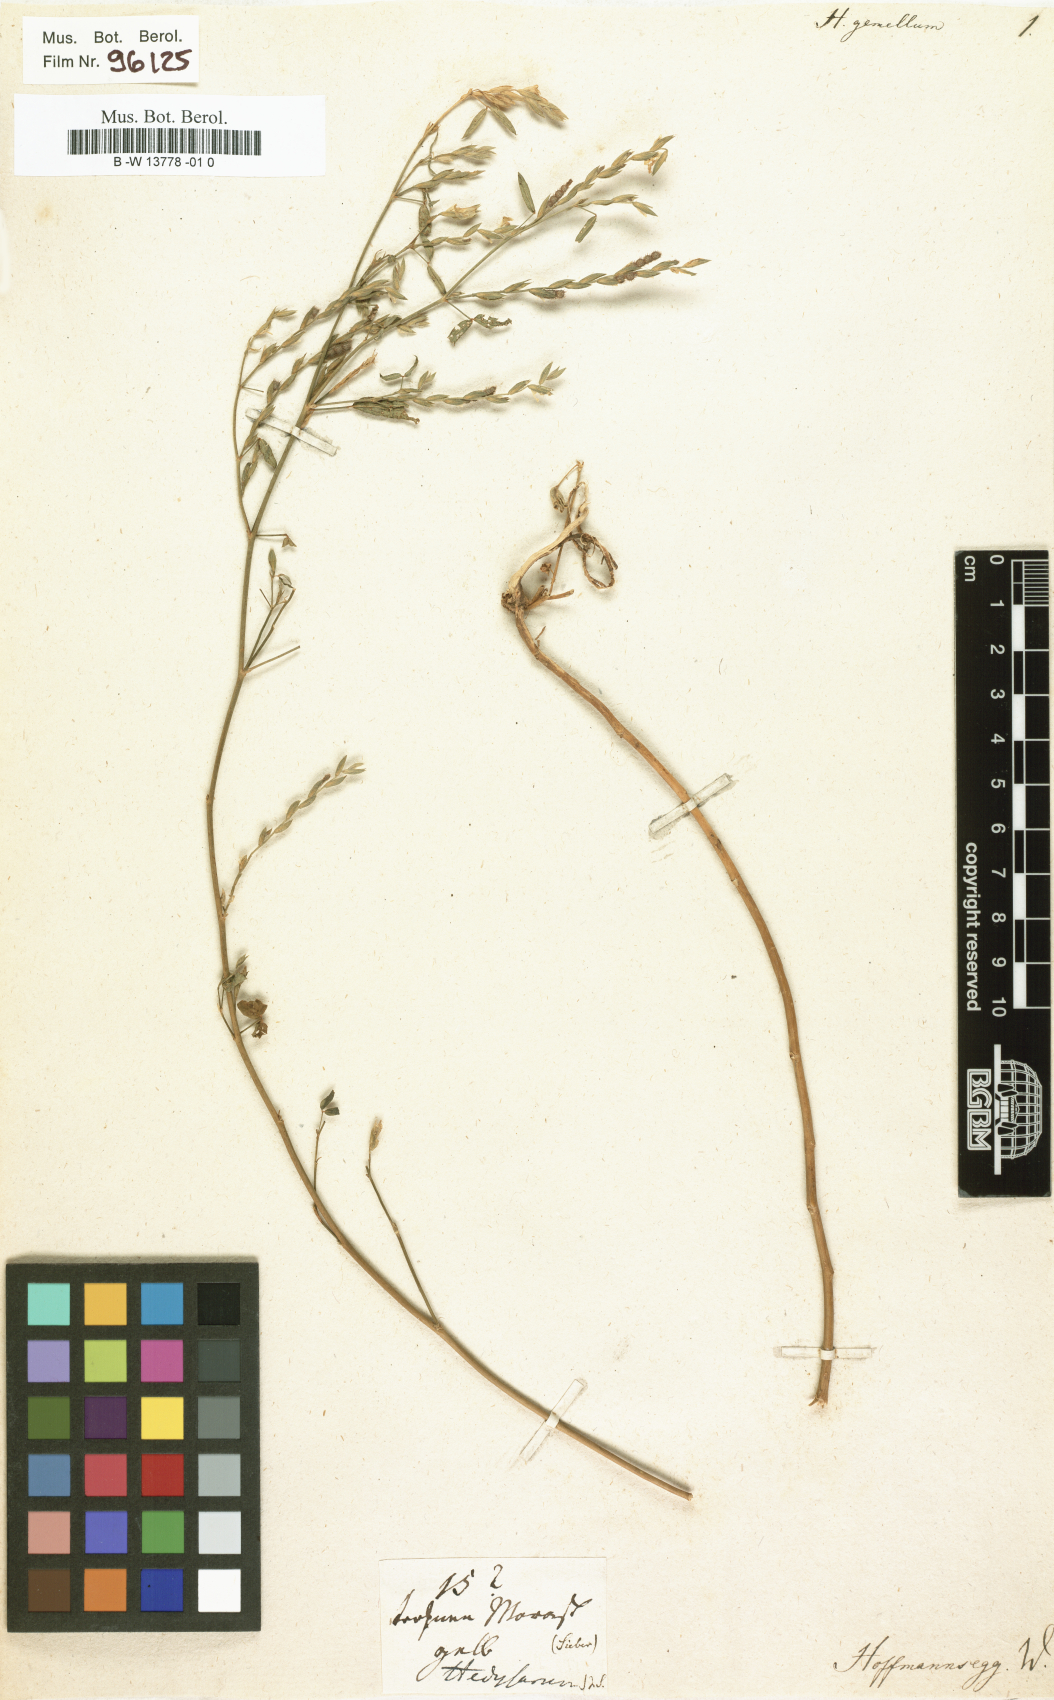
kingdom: Plantae
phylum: Tracheophyta
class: Magnoliopsida
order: Fabales
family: Fabaceae
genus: Zornia
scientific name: Zornia latifolia
